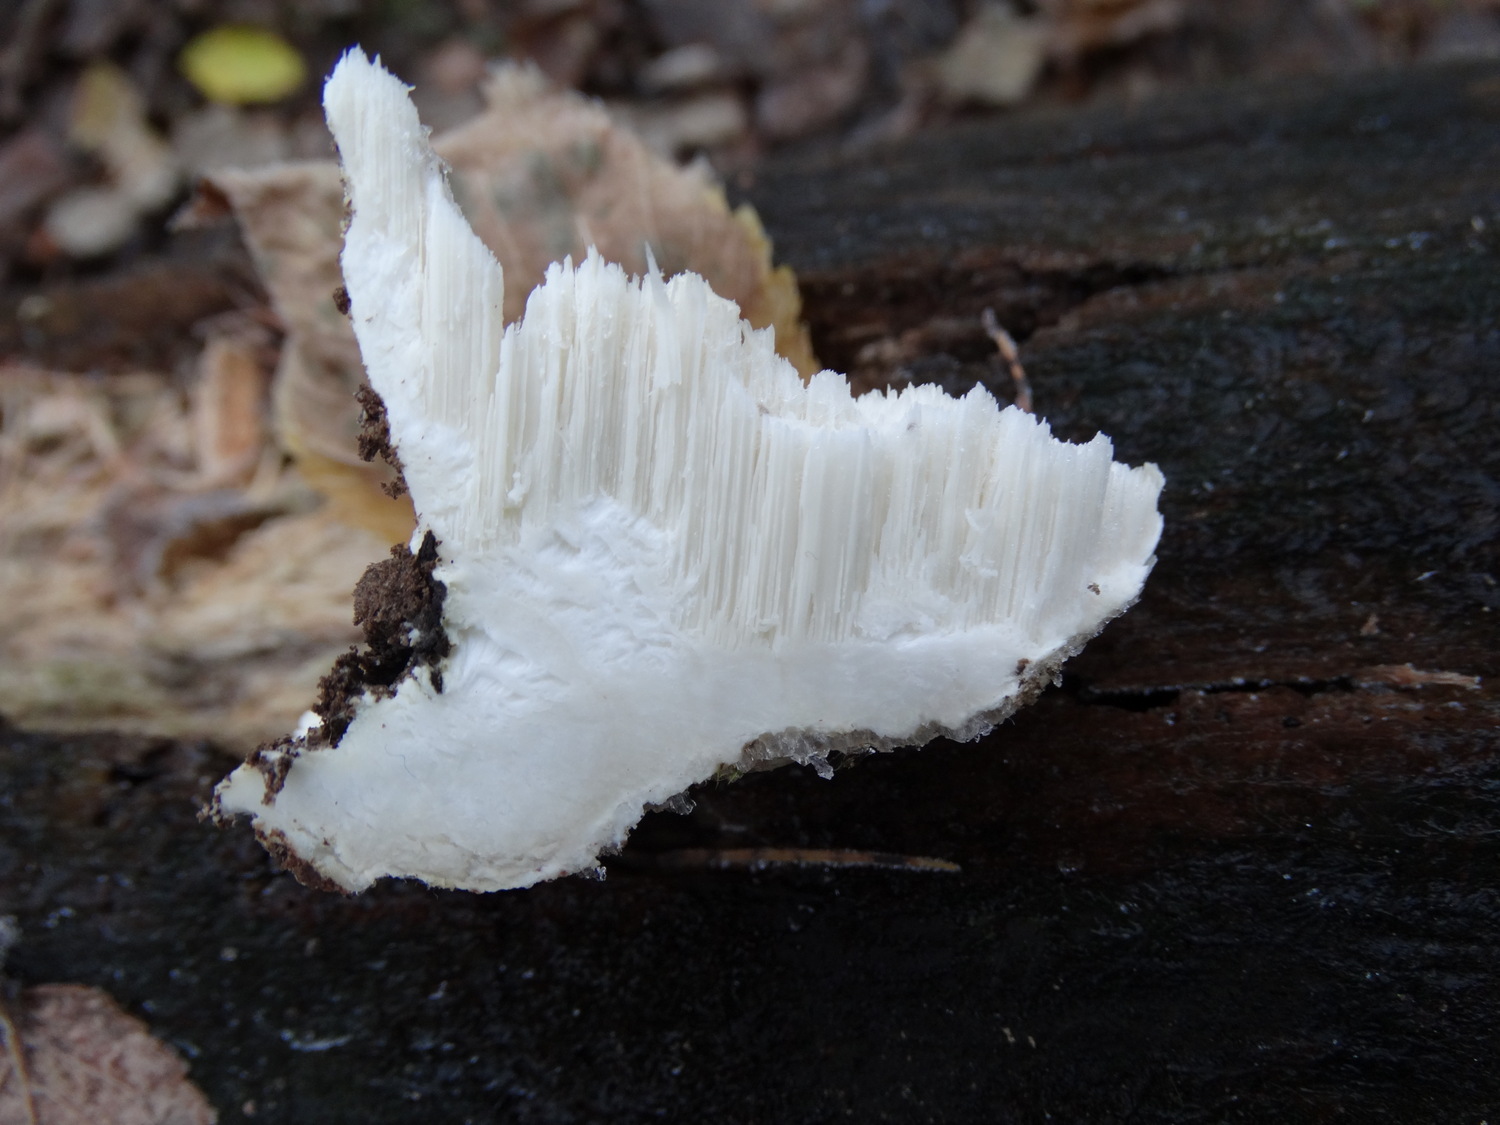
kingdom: Fungi
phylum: Basidiomycota
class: Agaricomycetes
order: Polyporales
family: Incrustoporiaceae
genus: Tyromyces
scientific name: Tyromyces lacteus
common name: mælkehvid kødporesvamp
